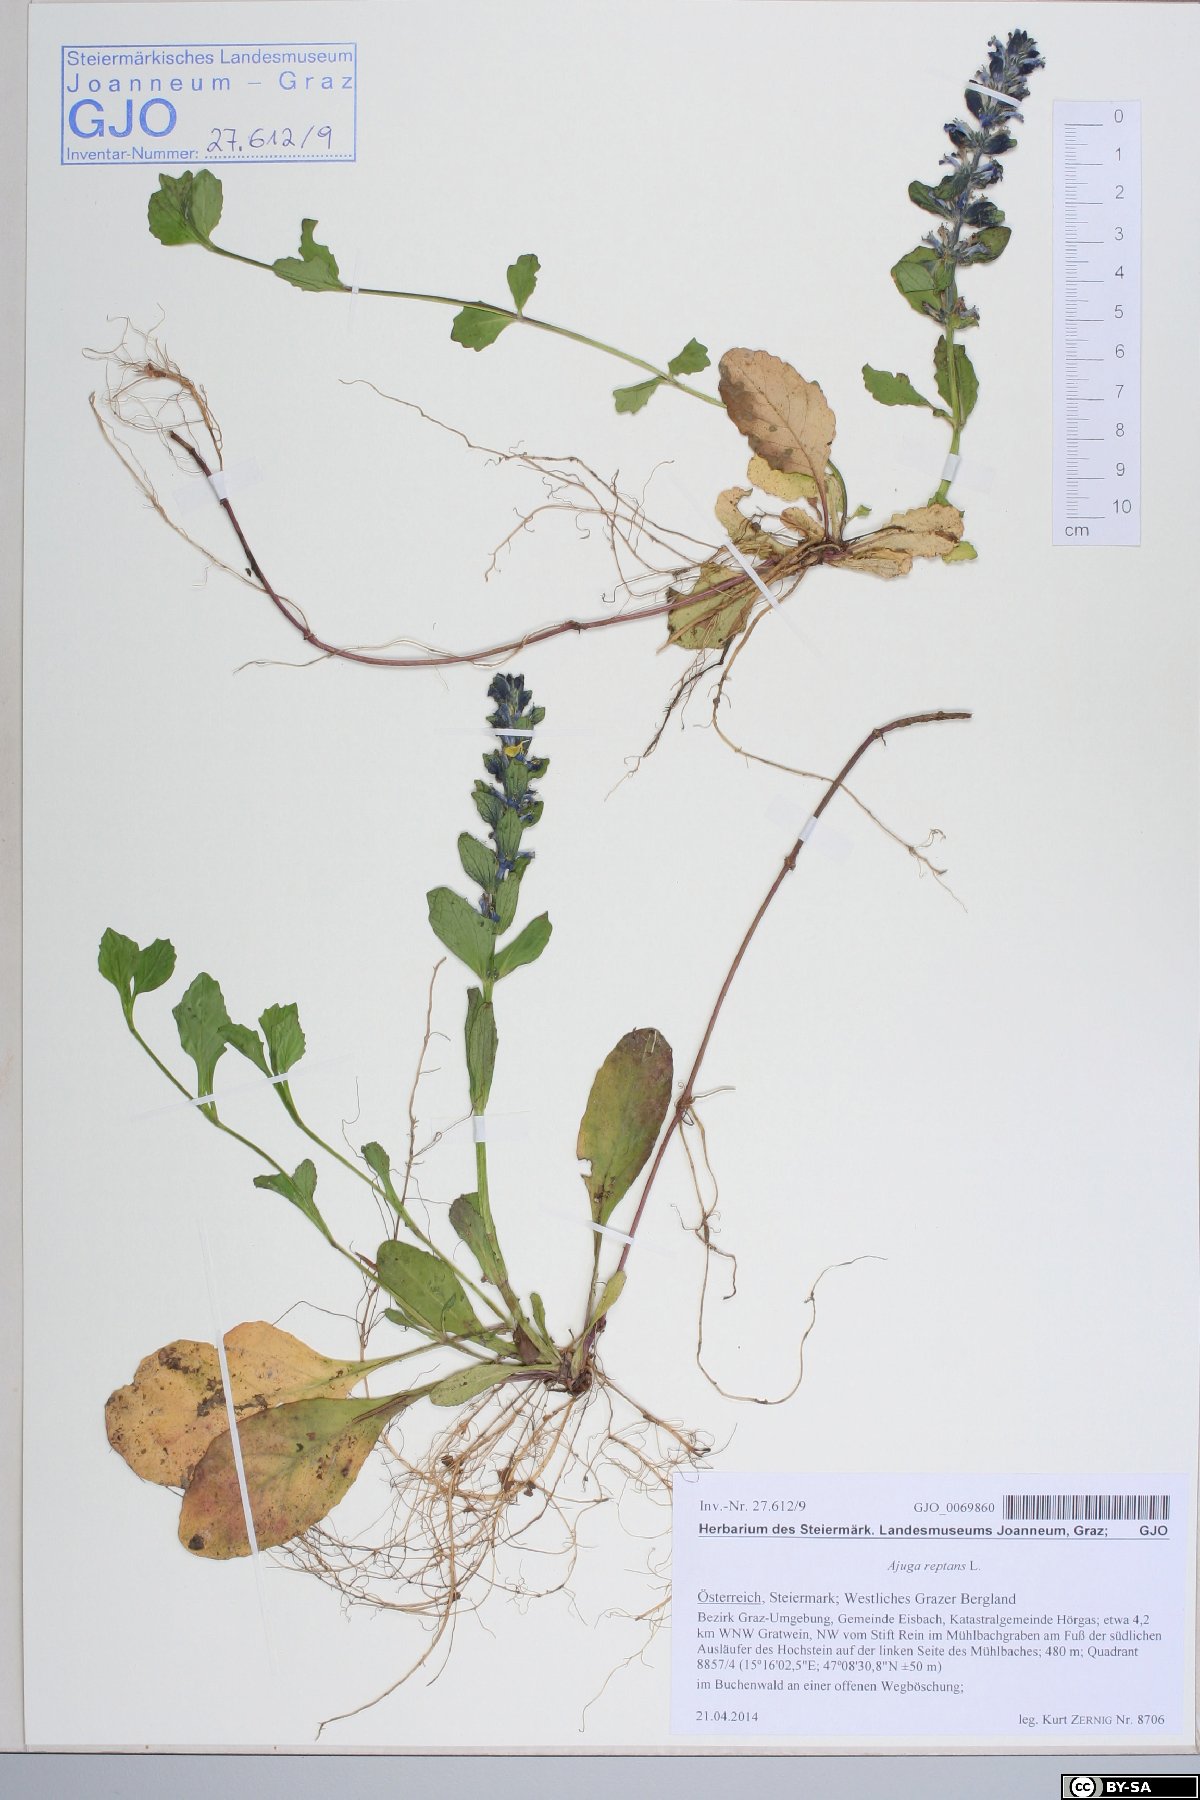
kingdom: Plantae
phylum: Tracheophyta
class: Magnoliopsida
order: Lamiales
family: Lamiaceae
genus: Ajuga
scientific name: Ajuga reptans
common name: Bugle
